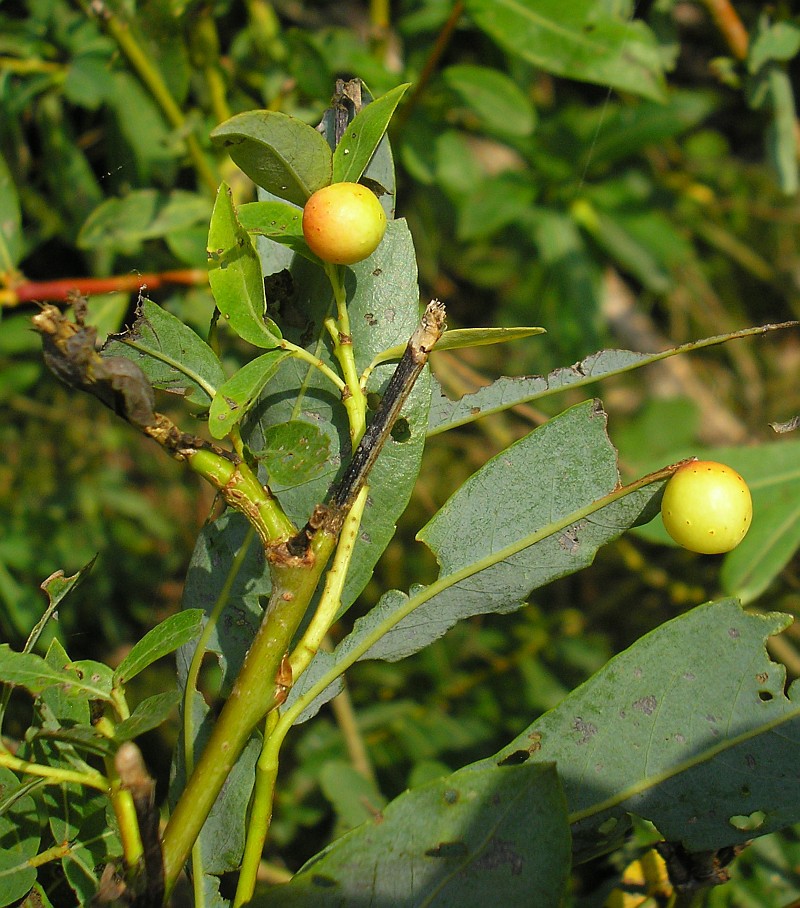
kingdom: Animalia
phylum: Arthropoda
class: Insecta
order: Hymenoptera
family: Tenthredinidae
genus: Pontania
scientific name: Pontania viminalis
